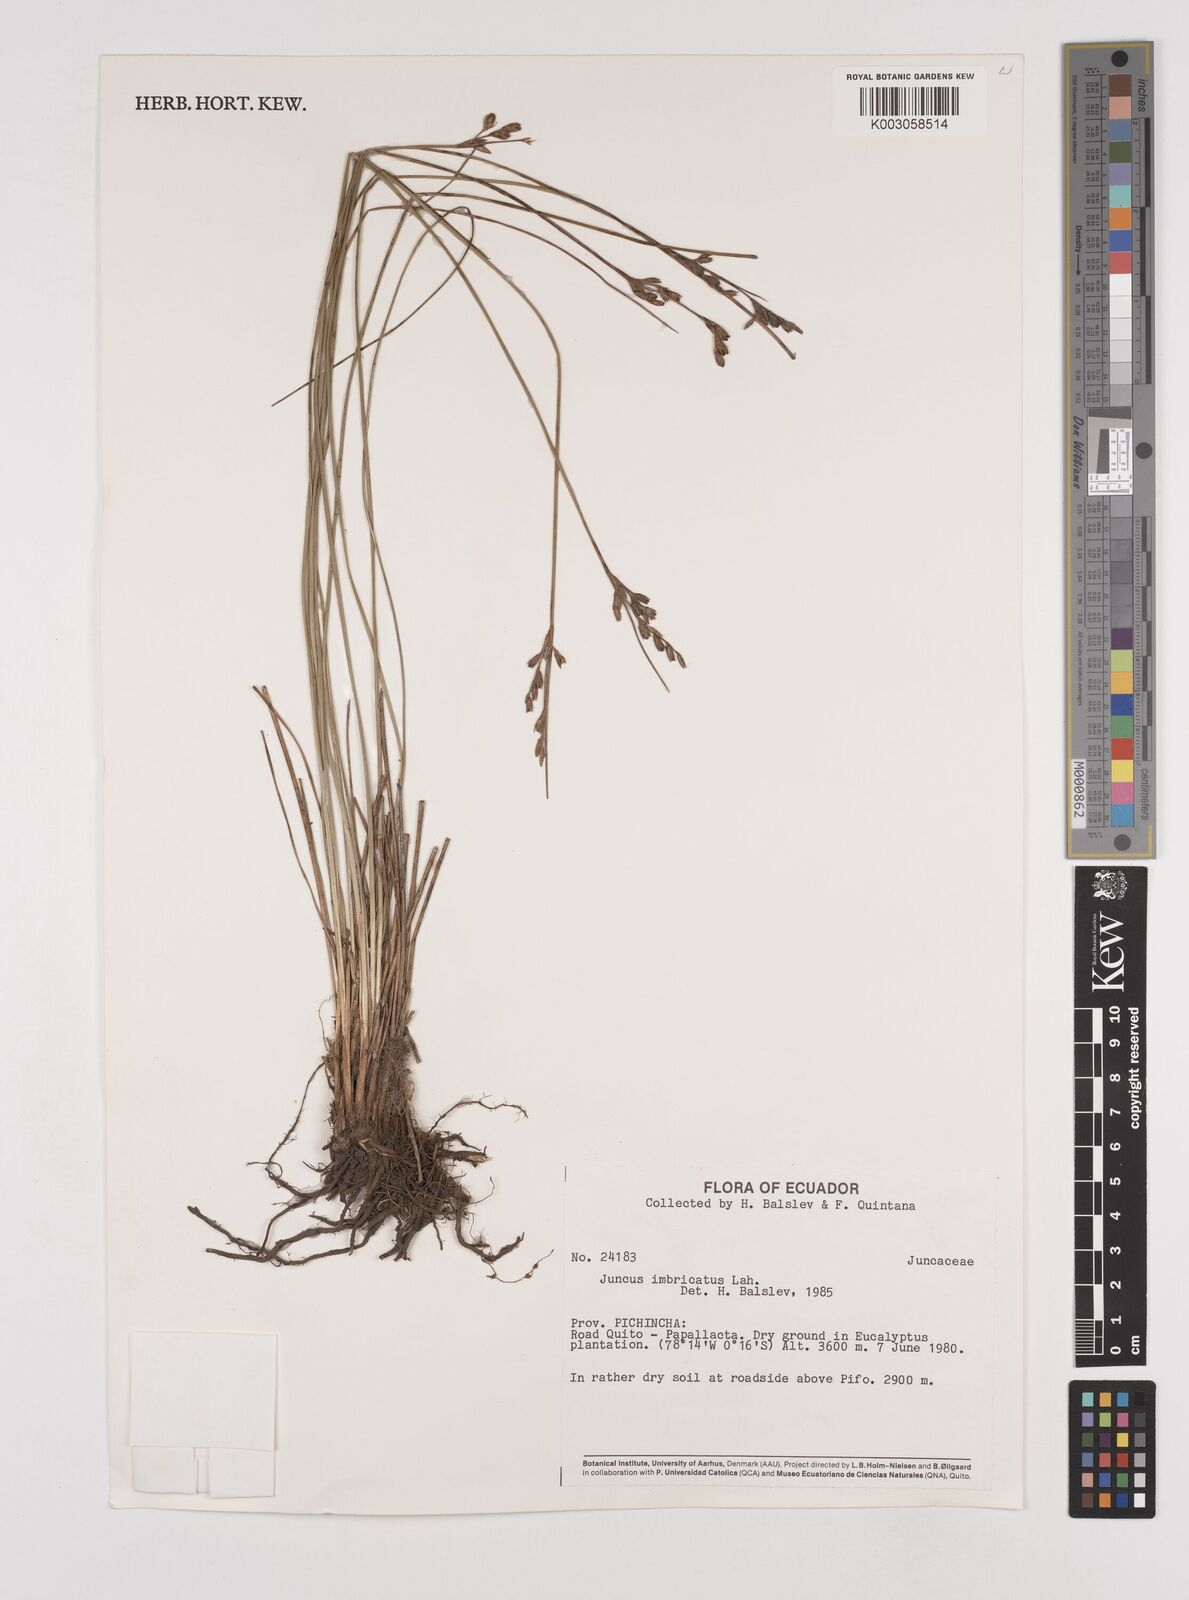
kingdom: Plantae
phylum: Tracheophyta
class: Liliopsida
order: Poales
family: Juncaceae
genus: Juncus
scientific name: Juncus imbricatus
